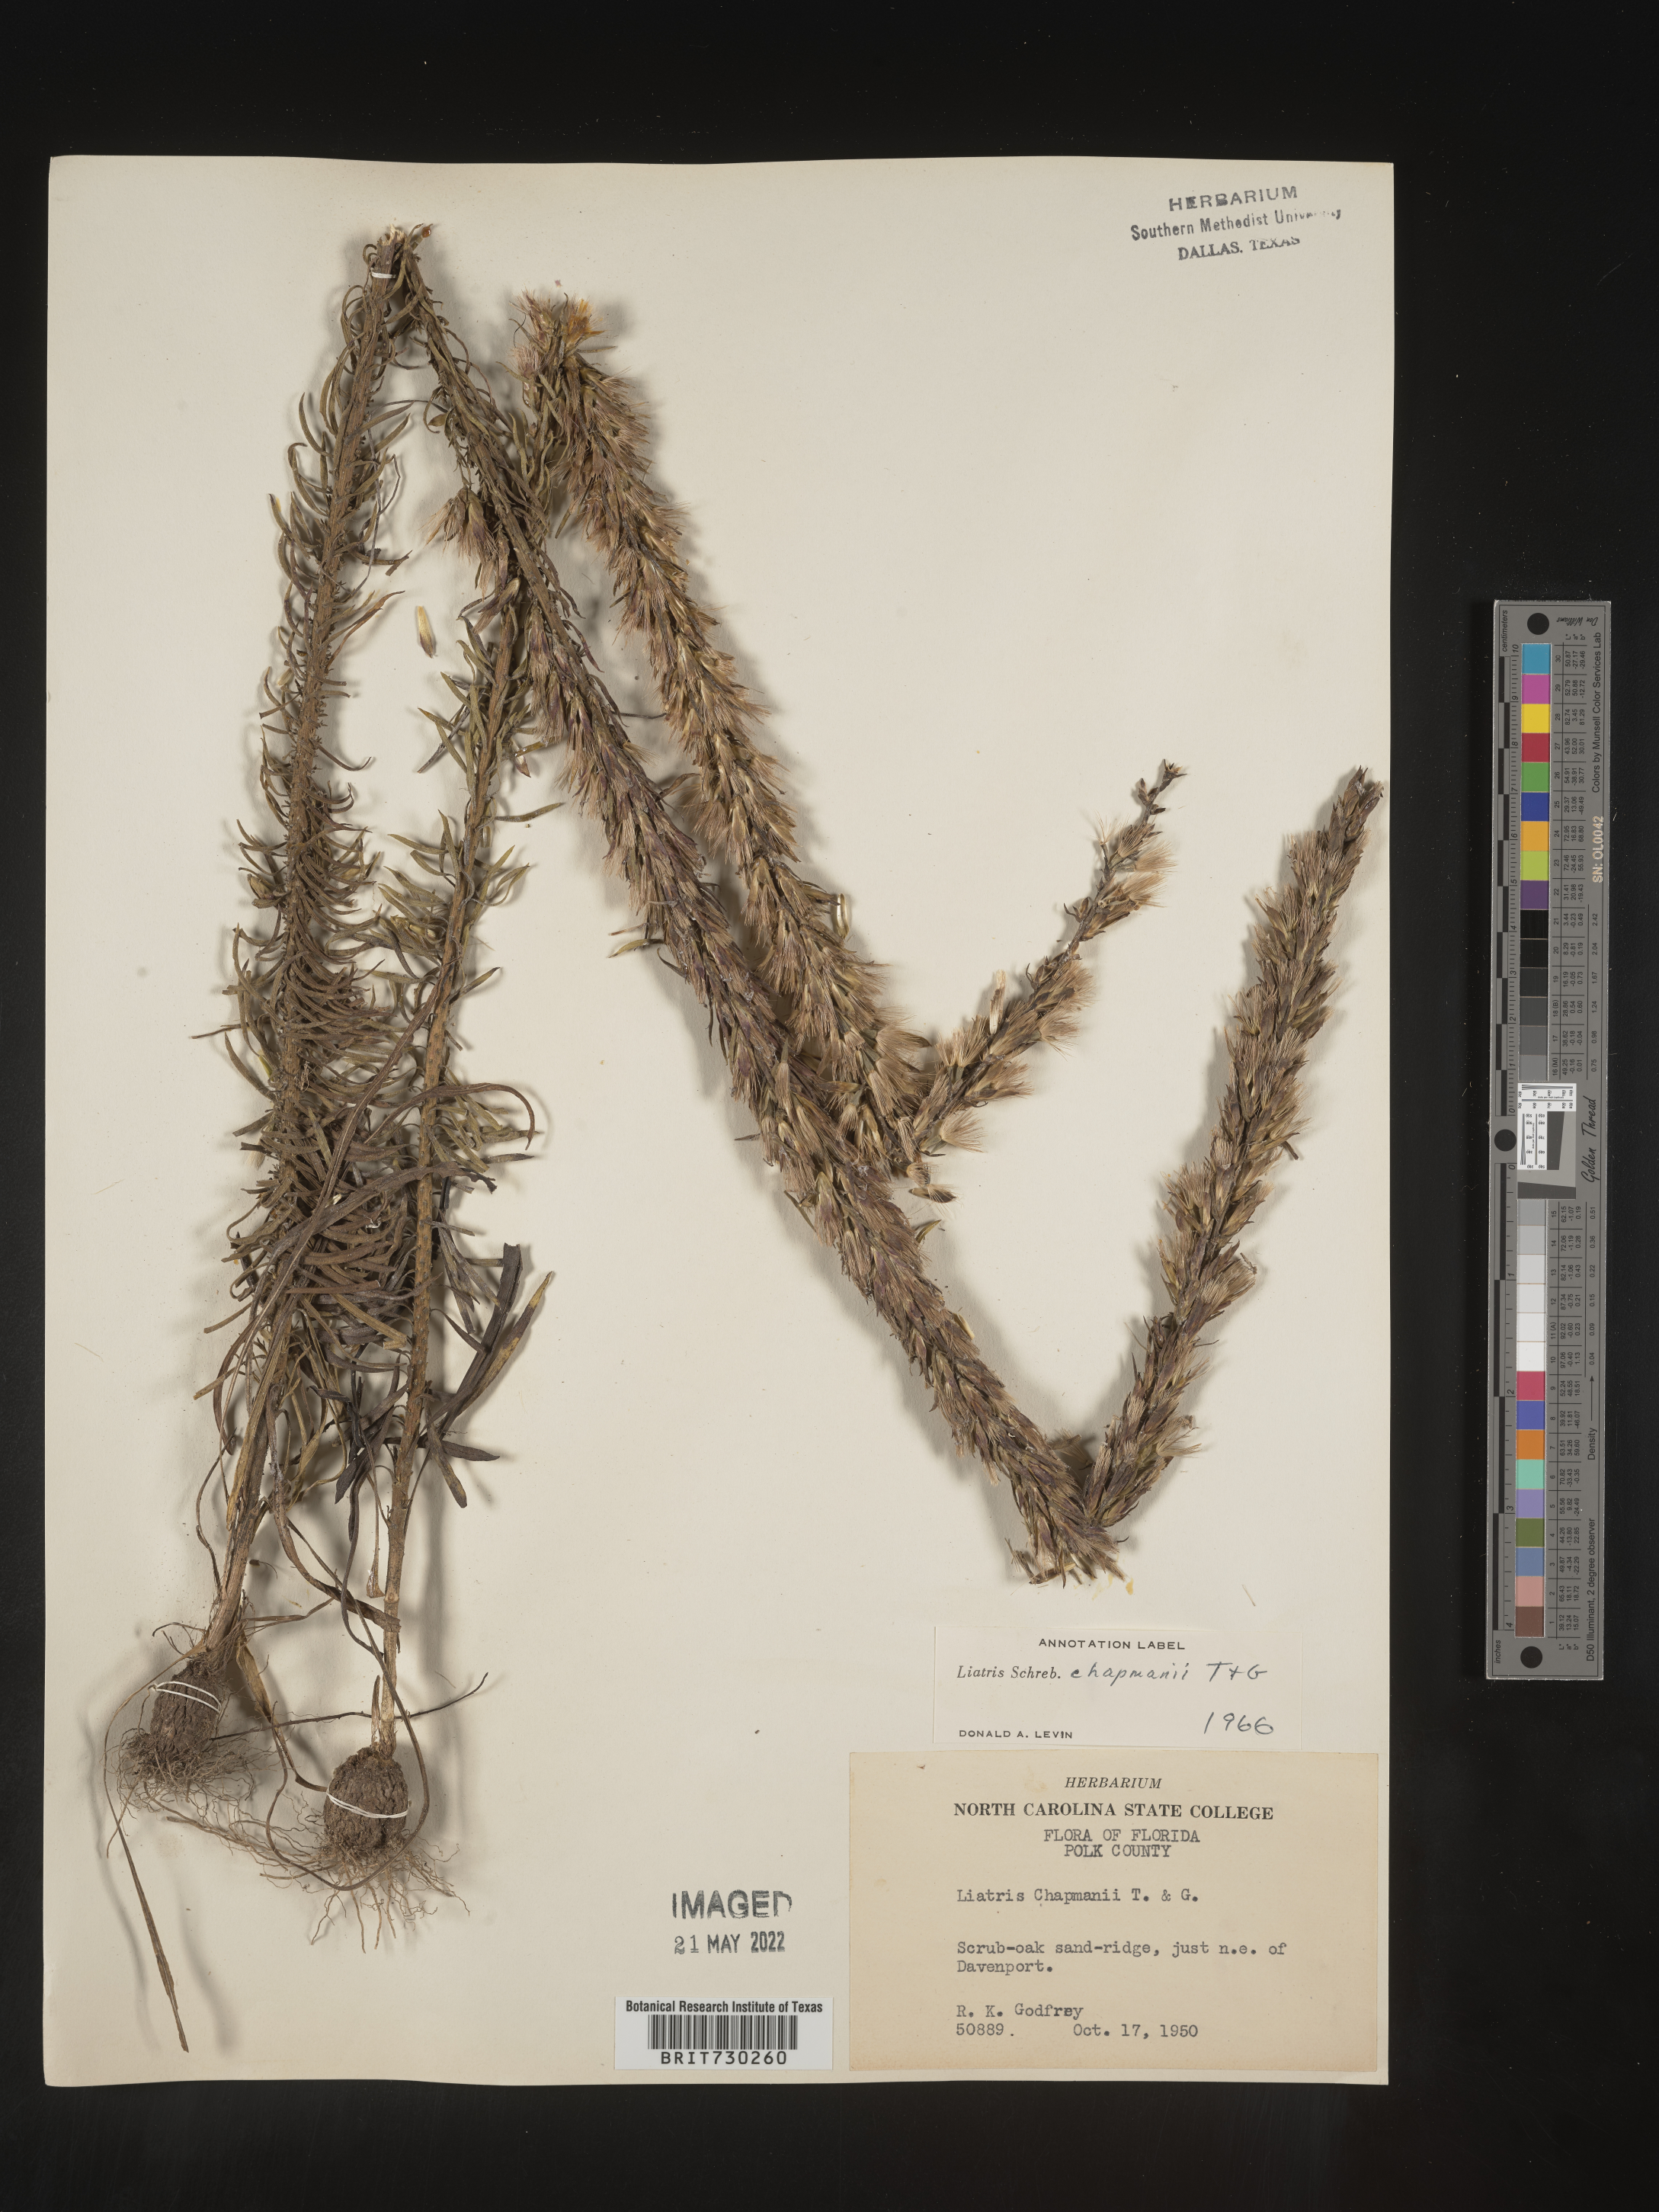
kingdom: Plantae
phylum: Tracheophyta
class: Magnoliopsida
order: Asterales
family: Asteraceae
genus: Liatris
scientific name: Liatris chapmanii
